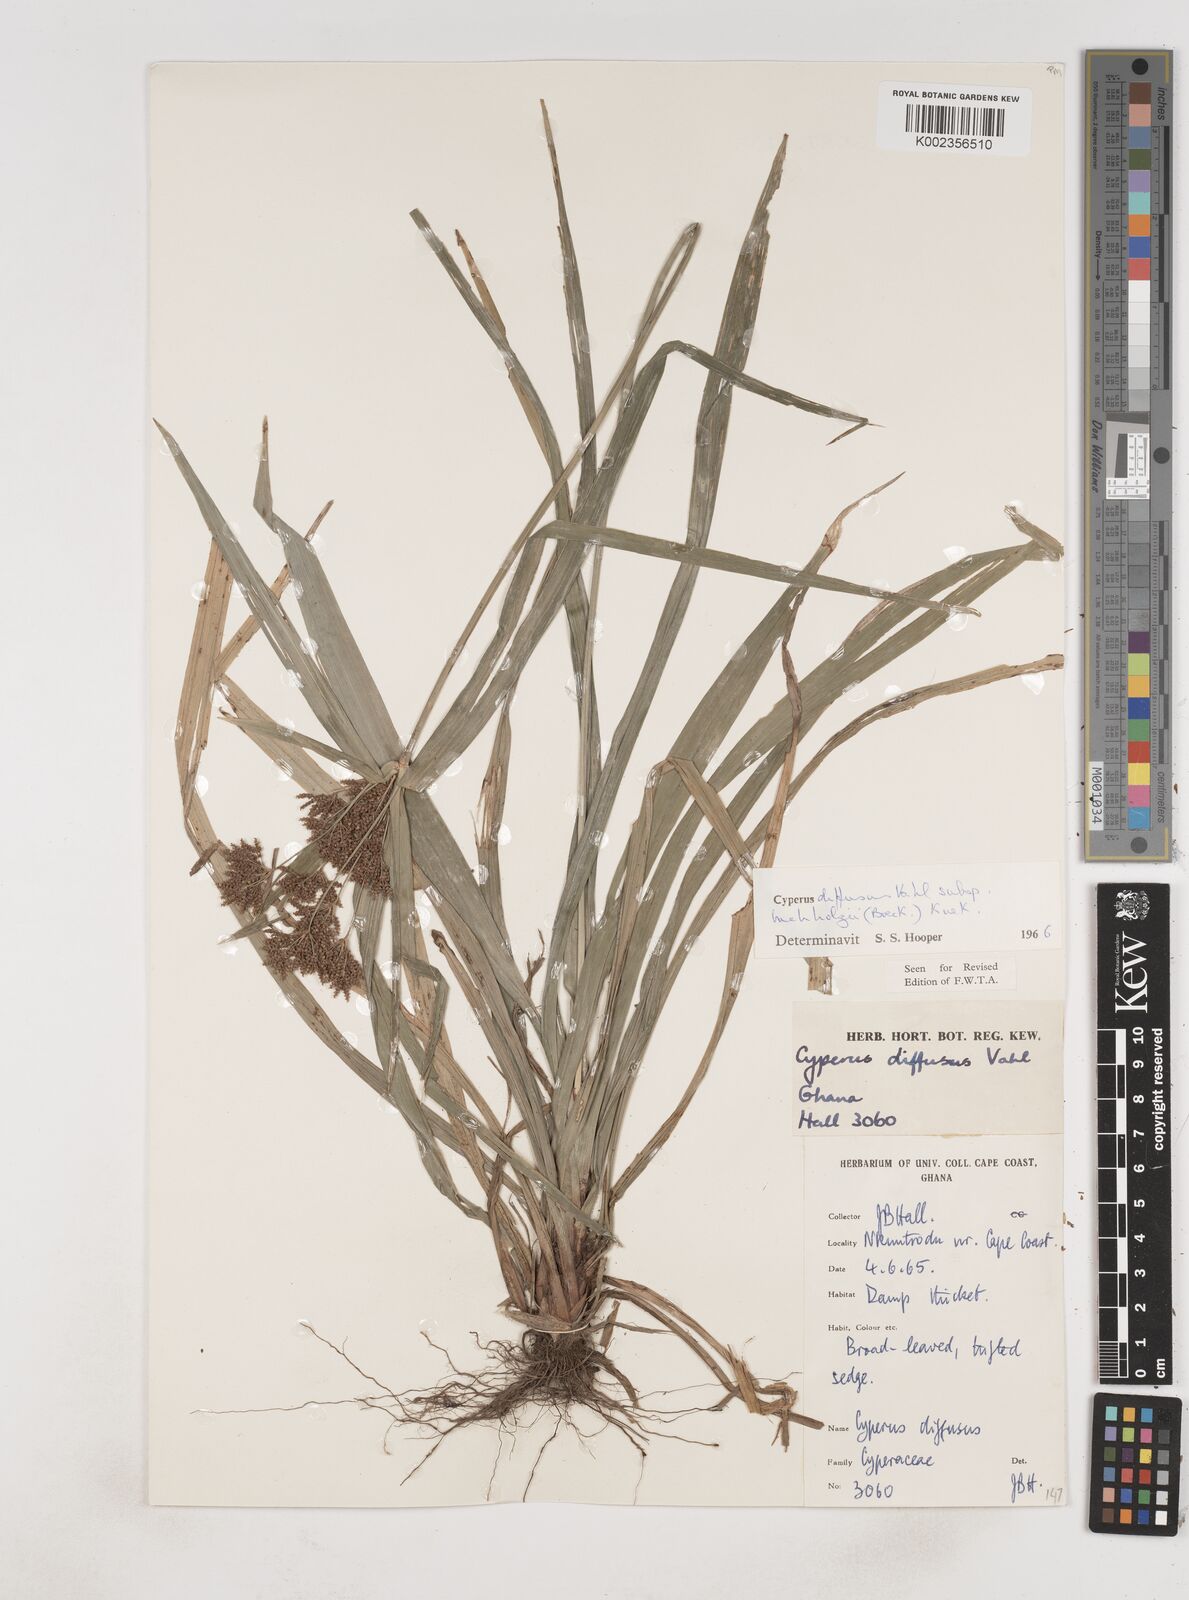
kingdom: Plantae
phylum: Tracheophyta
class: Liliopsida
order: Poales
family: Cyperaceae
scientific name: Cyperaceae
